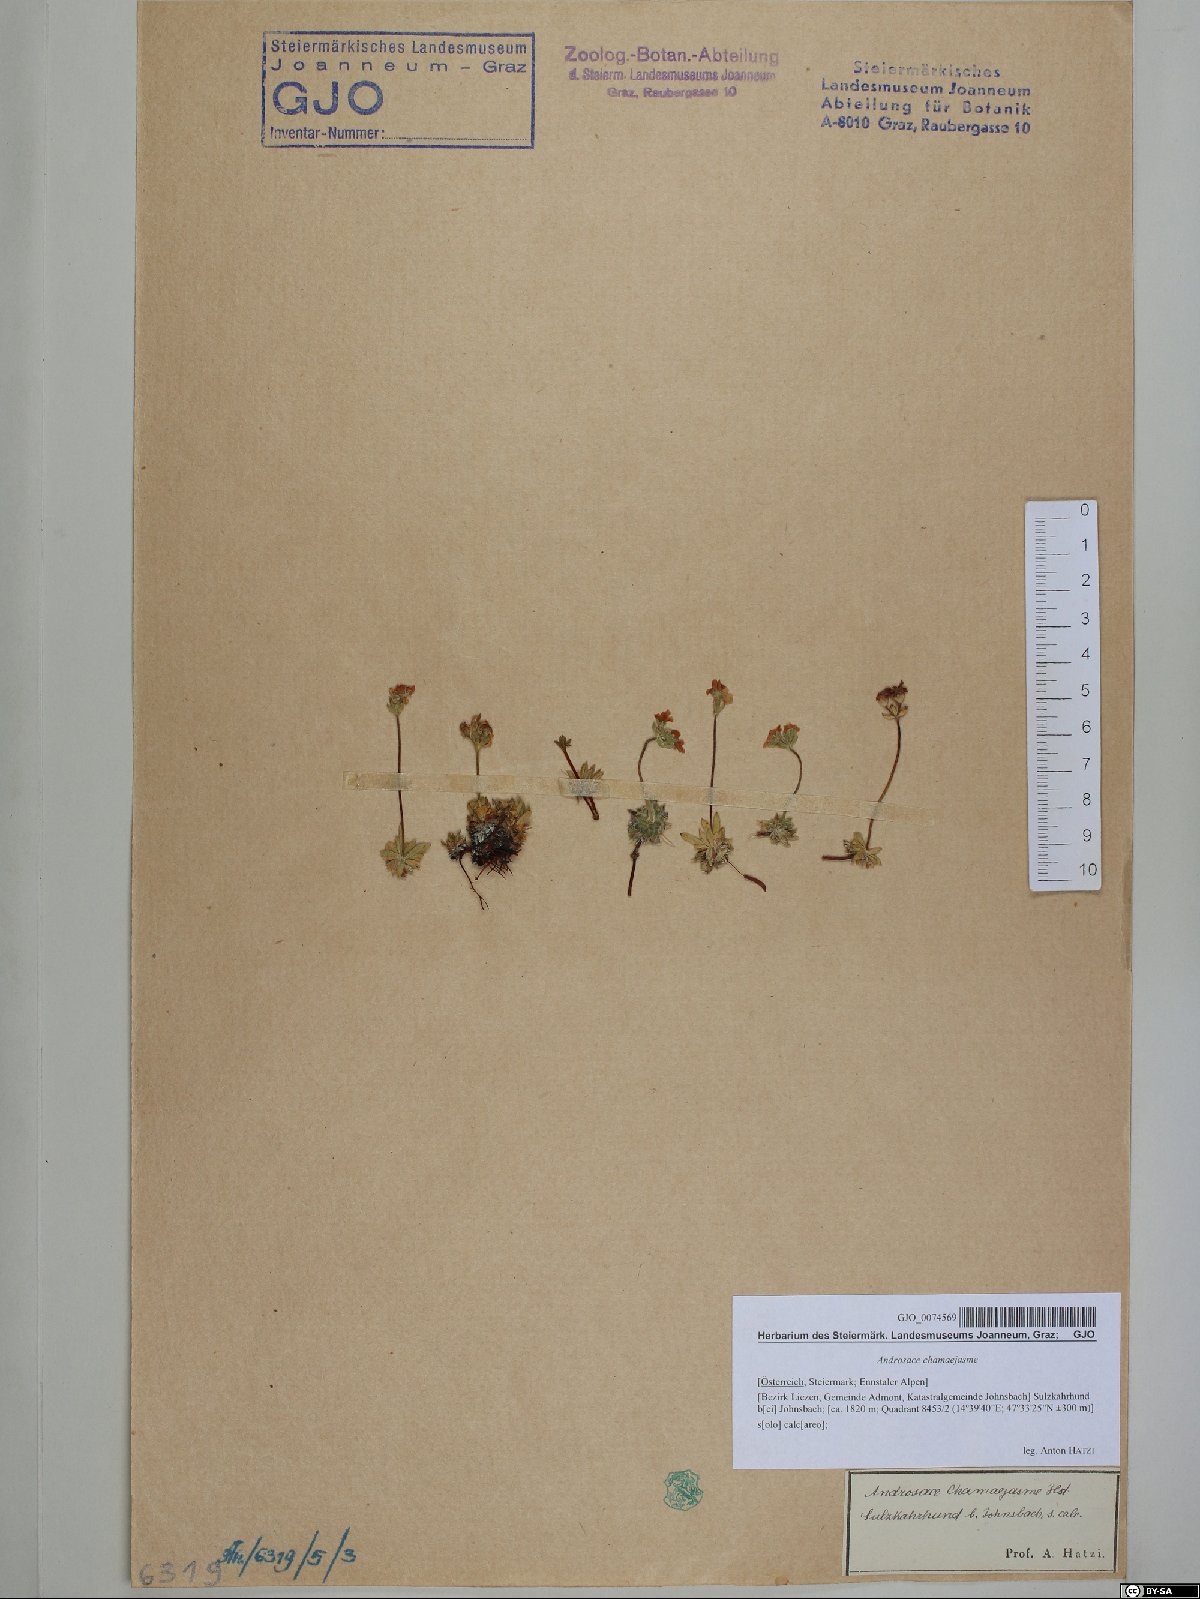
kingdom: Plantae
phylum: Tracheophyta
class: Magnoliopsida
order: Ericales
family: Primulaceae
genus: Androsace
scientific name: Androsace chamaejasme
